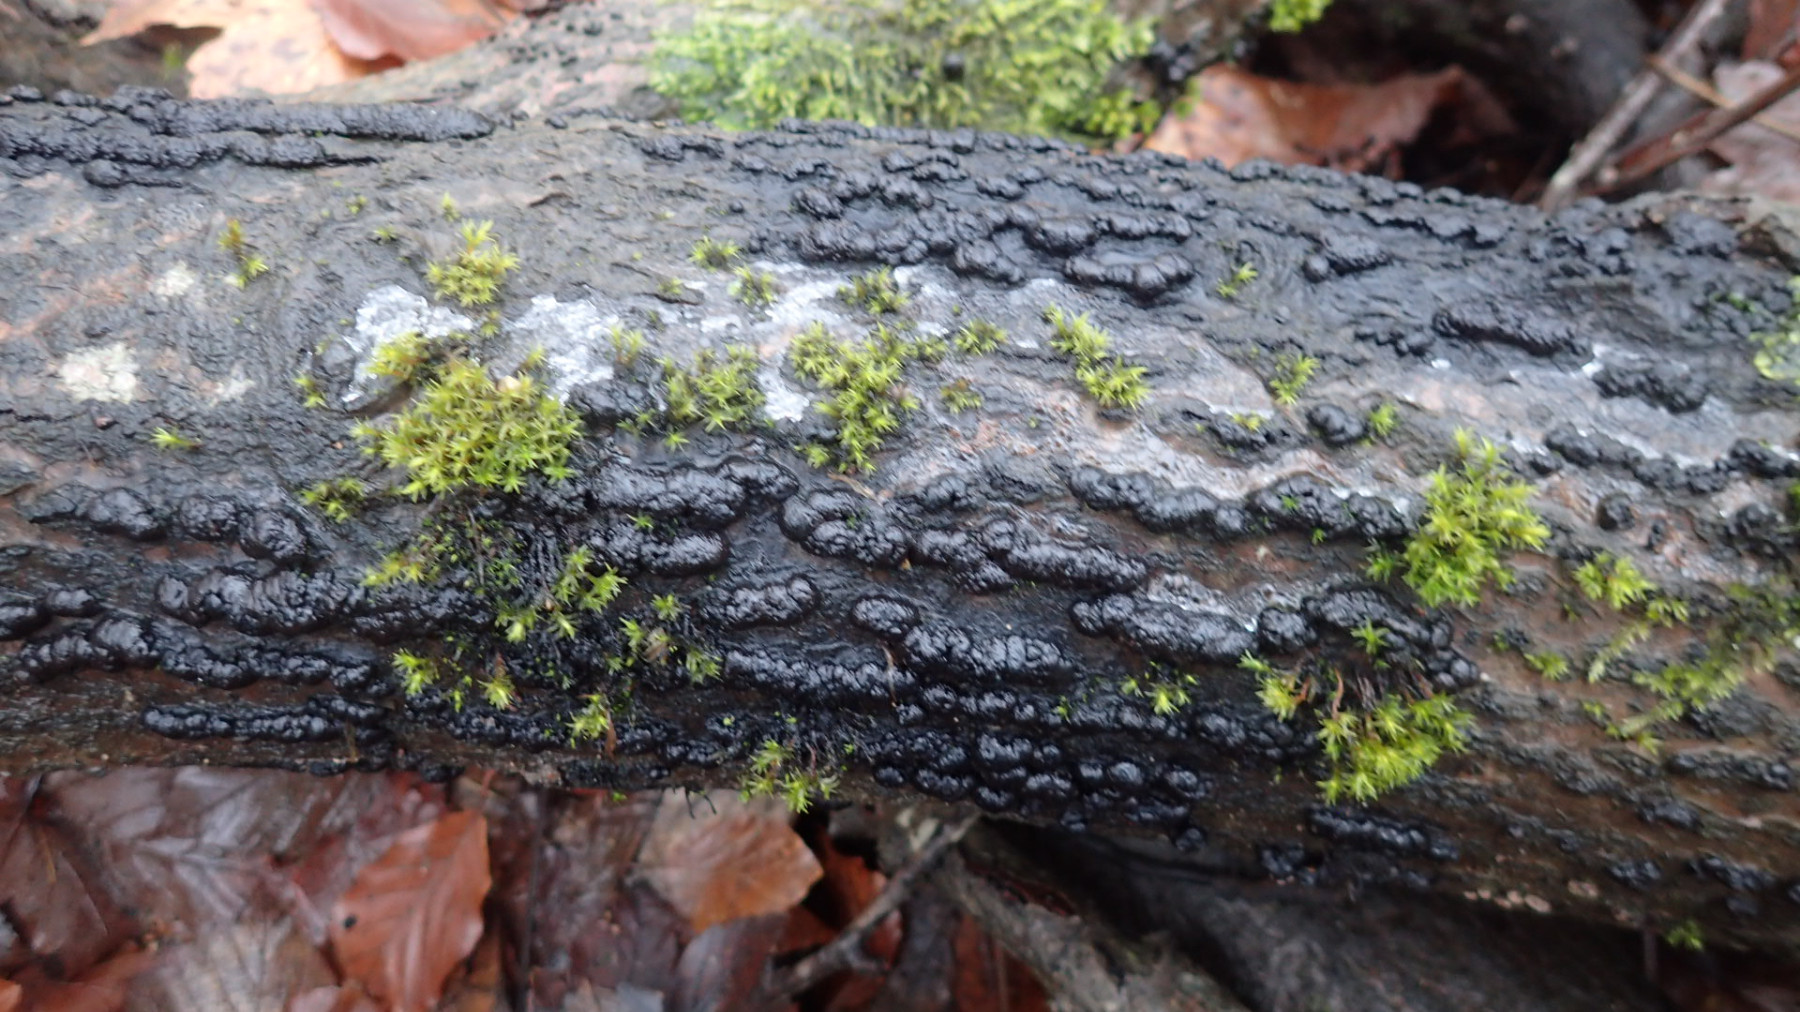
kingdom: Fungi
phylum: Ascomycota
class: Sordariomycetes
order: Xylariales
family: Hypoxylaceae
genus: Hypoxylon
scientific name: Hypoxylon fragiforme
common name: kuljordbær
